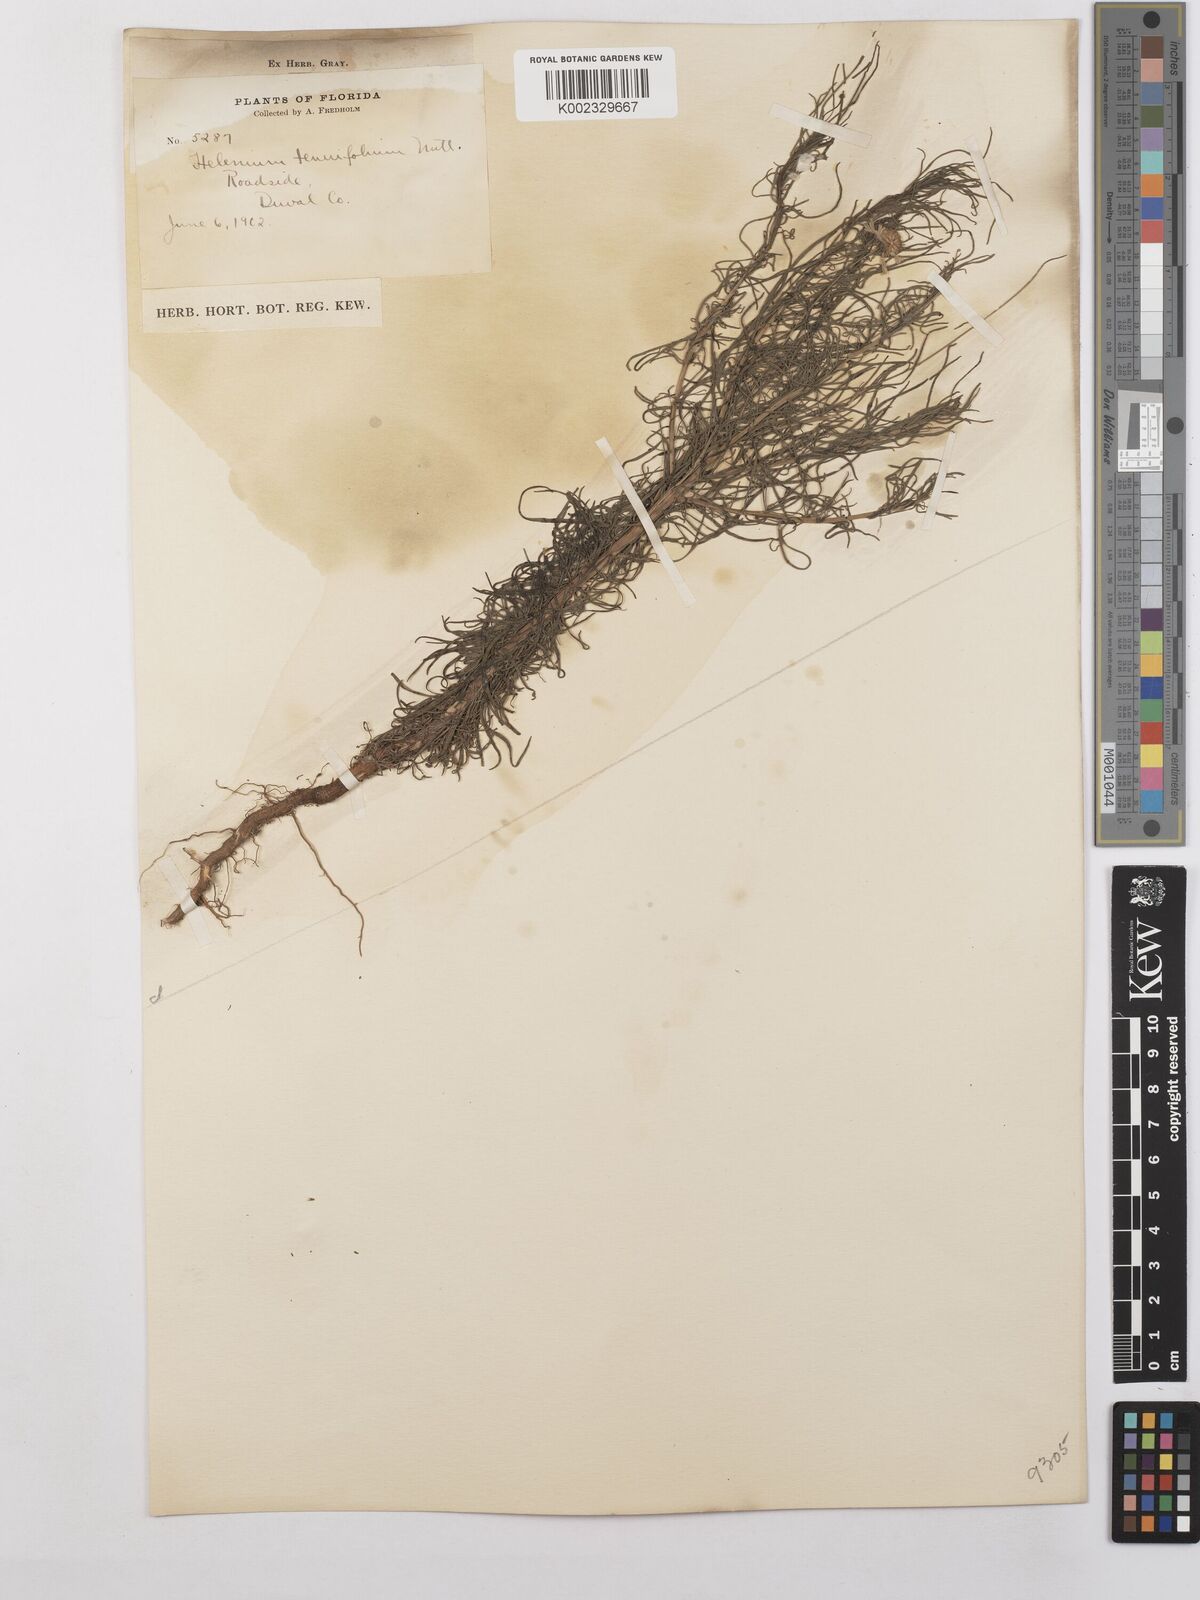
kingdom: Plantae
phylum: Tracheophyta
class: Magnoliopsida
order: Asterales
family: Asteraceae
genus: Helenium
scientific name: Helenium amarum
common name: Bitter sneezeweed
